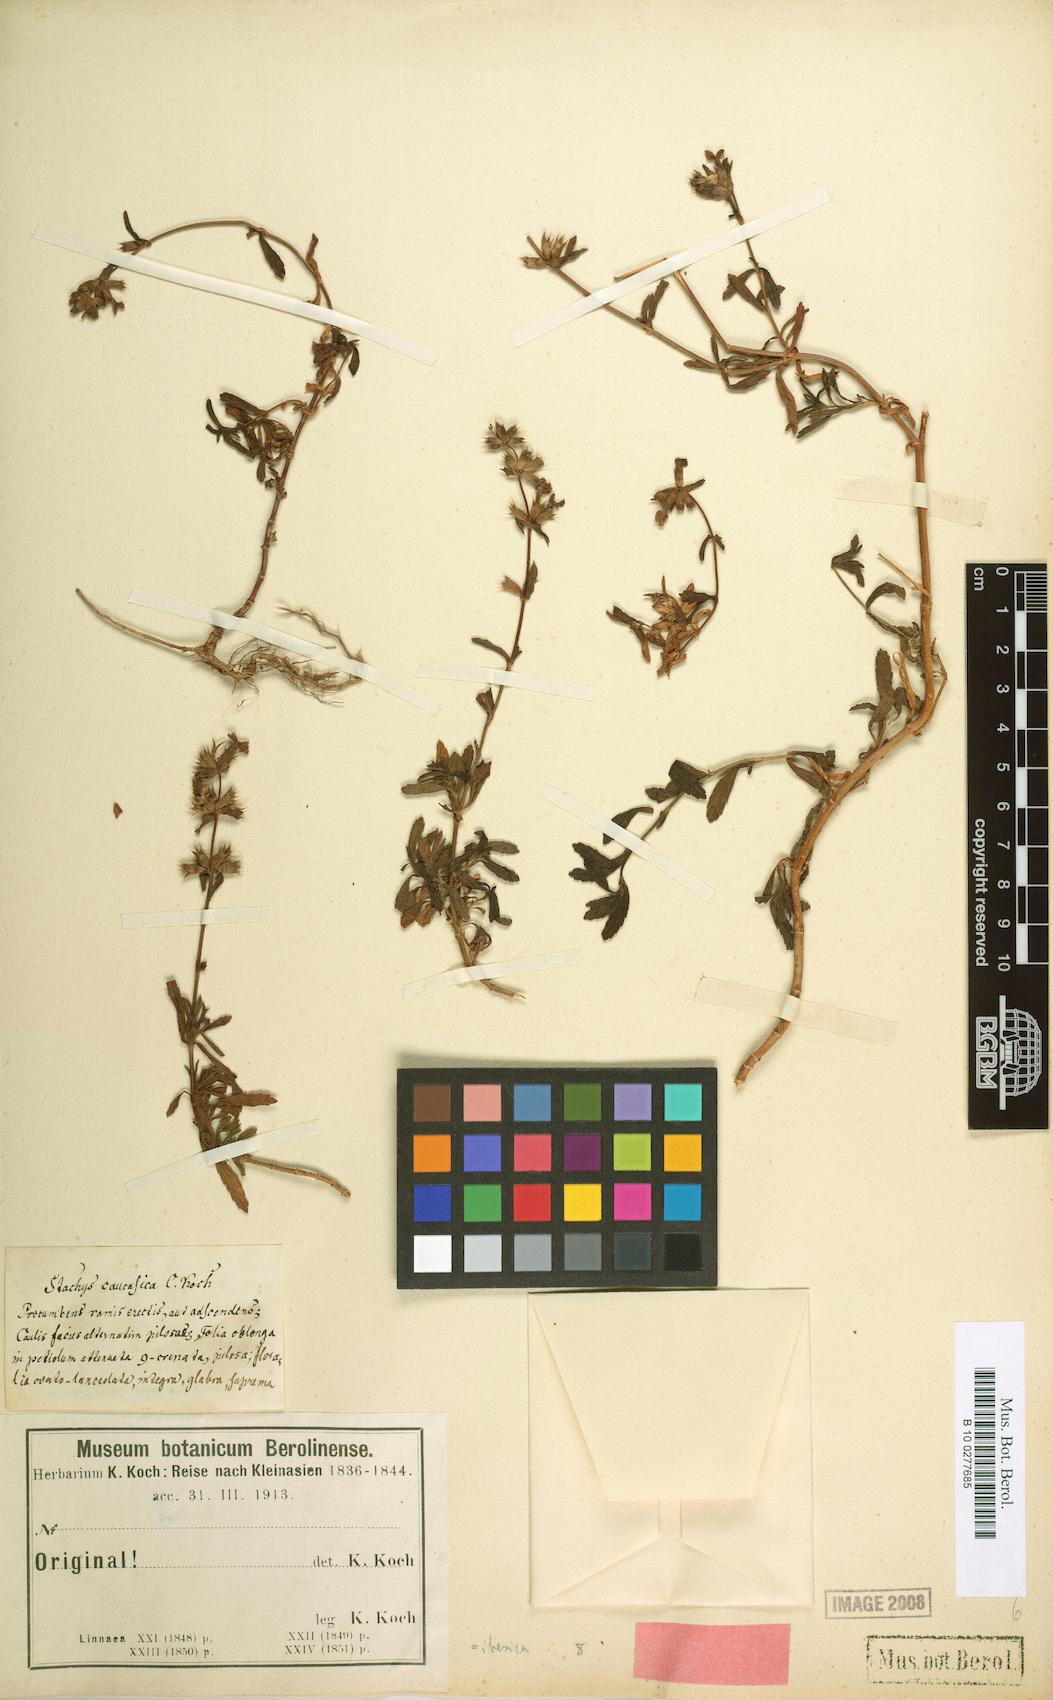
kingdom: Plantae
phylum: Tracheophyta
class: Magnoliopsida
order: Lamiales
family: Lamiaceae
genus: Stachys
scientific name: Stachys iberica
